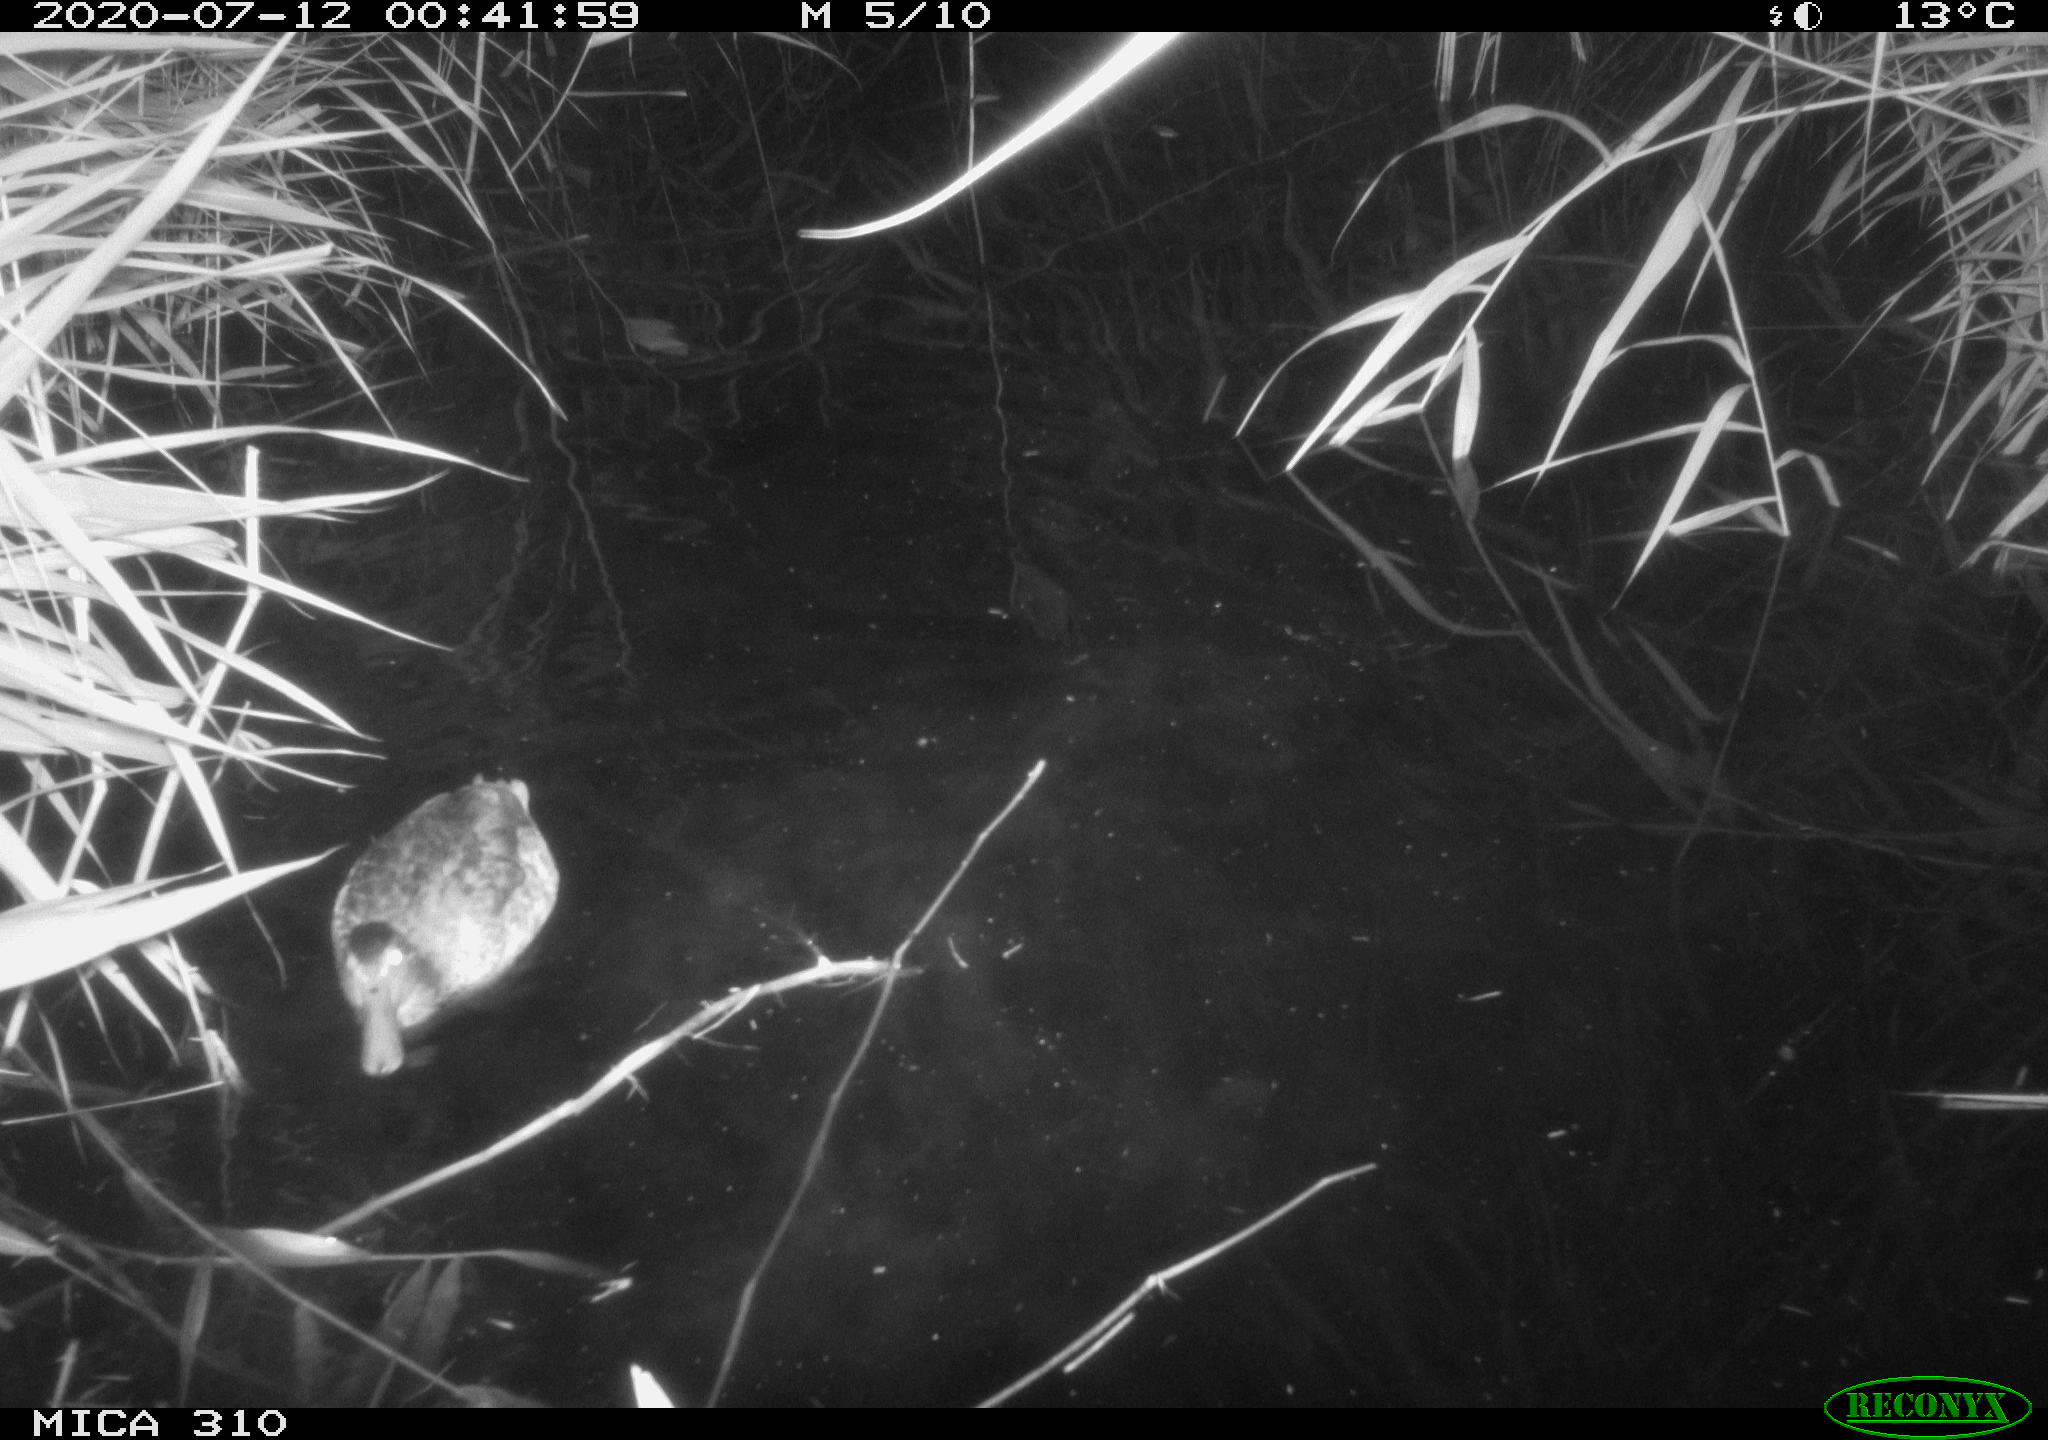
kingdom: Animalia
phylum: Chordata
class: Aves
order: Anseriformes
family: Anatidae
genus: Anas
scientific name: Anas platyrhynchos
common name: Mallard
